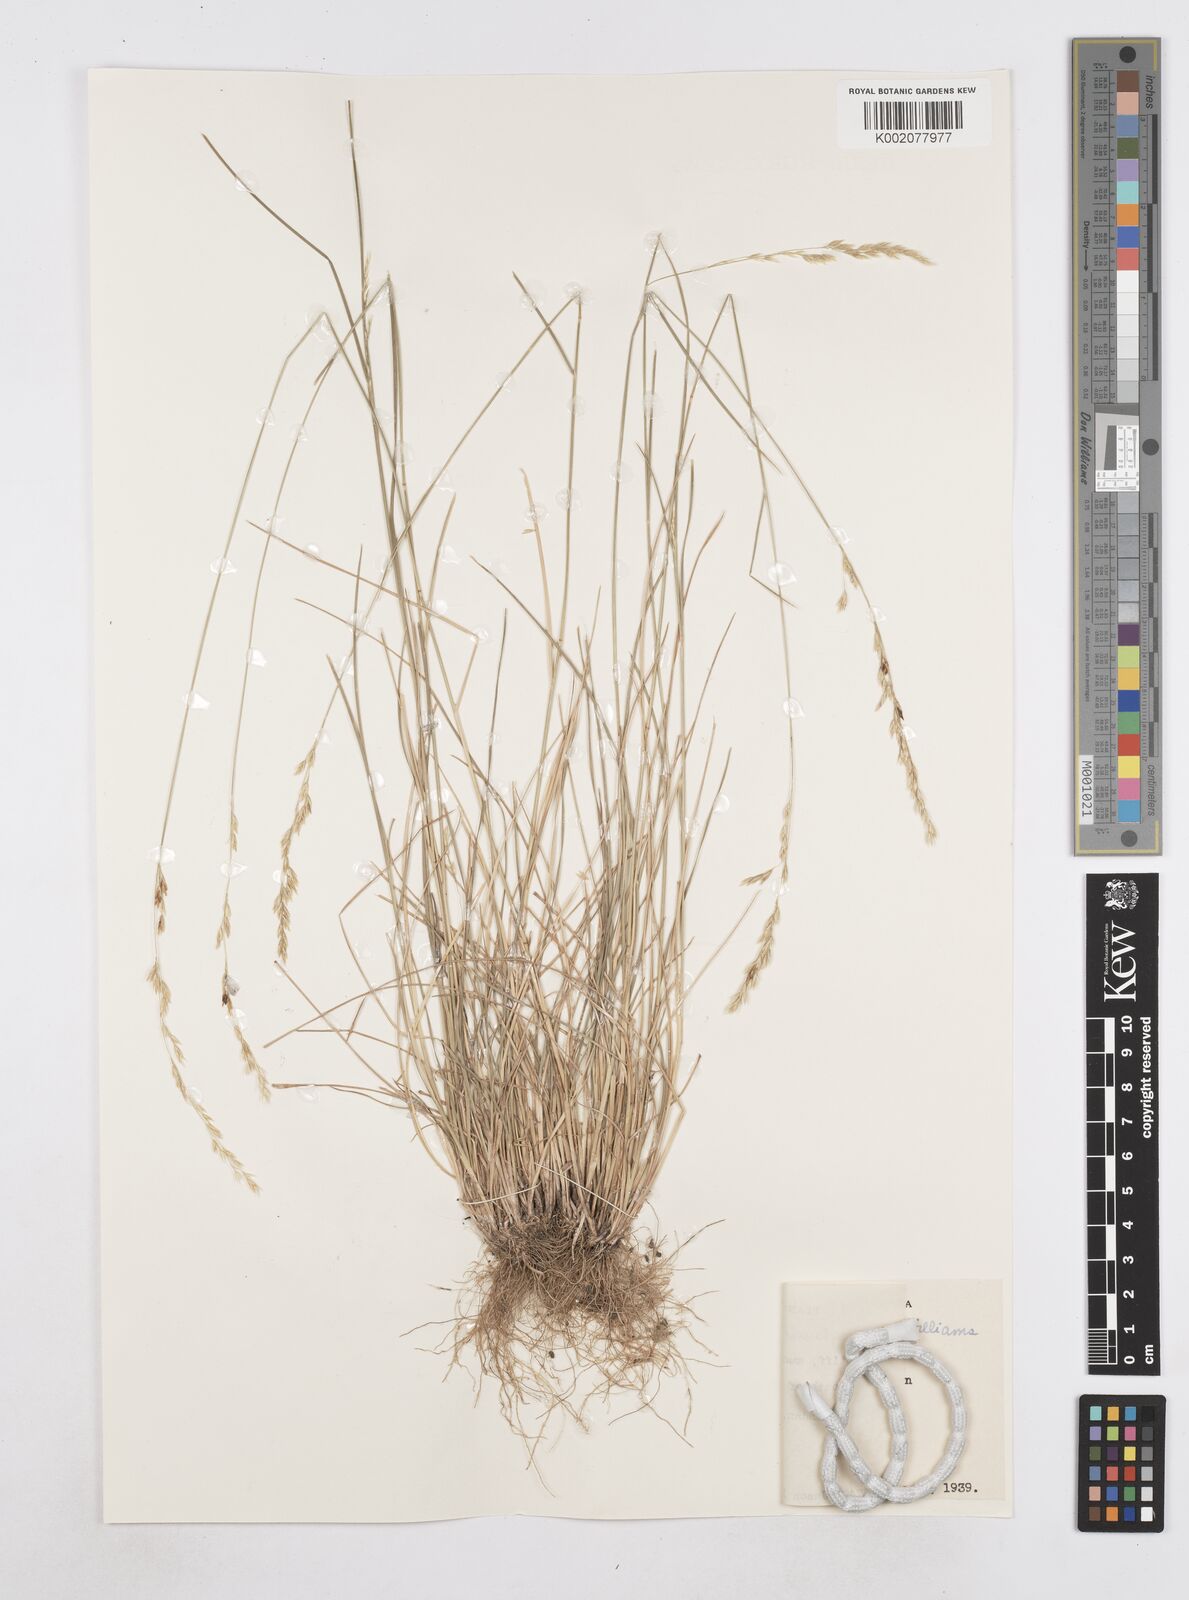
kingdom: Plantae
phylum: Tracheophyta
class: Liliopsida
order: Poales
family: Poaceae
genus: Poa
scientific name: Poa arida
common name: Plains bluegrass
